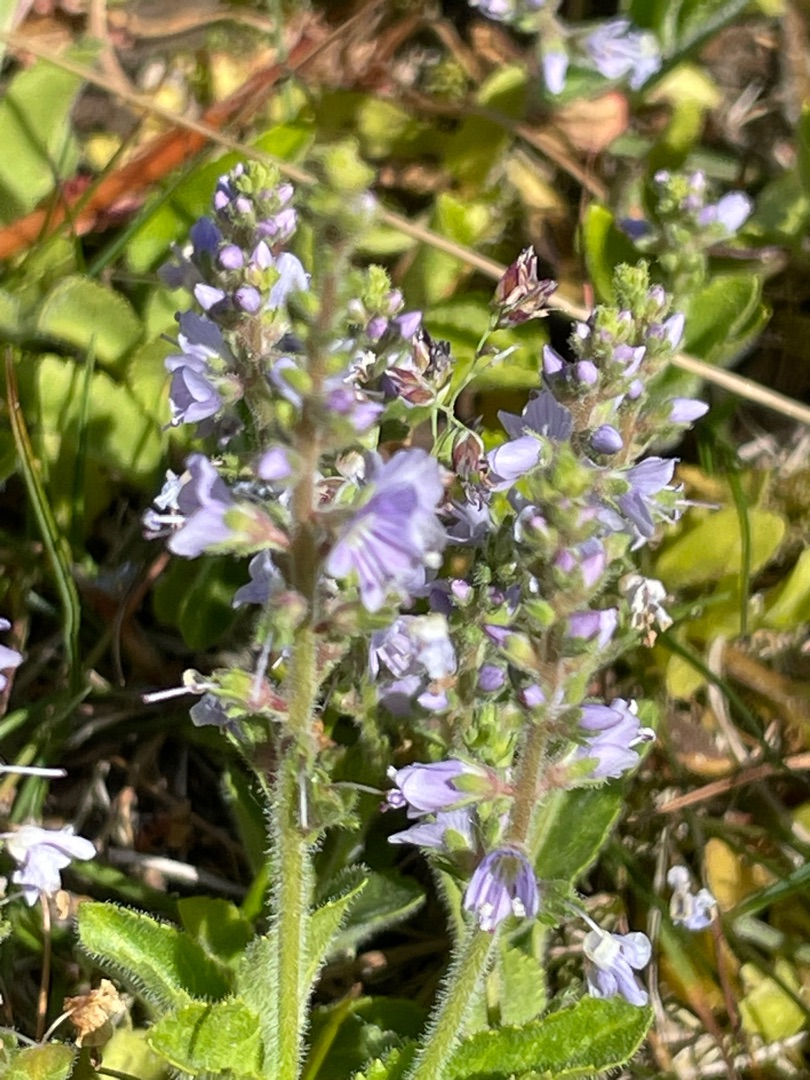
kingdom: Plantae
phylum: Tracheophyta
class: Magnoliopsida
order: Lamiales
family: Plantaginaceae
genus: Veronica
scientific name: Veronica officinalis
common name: Læge-ærenpris
